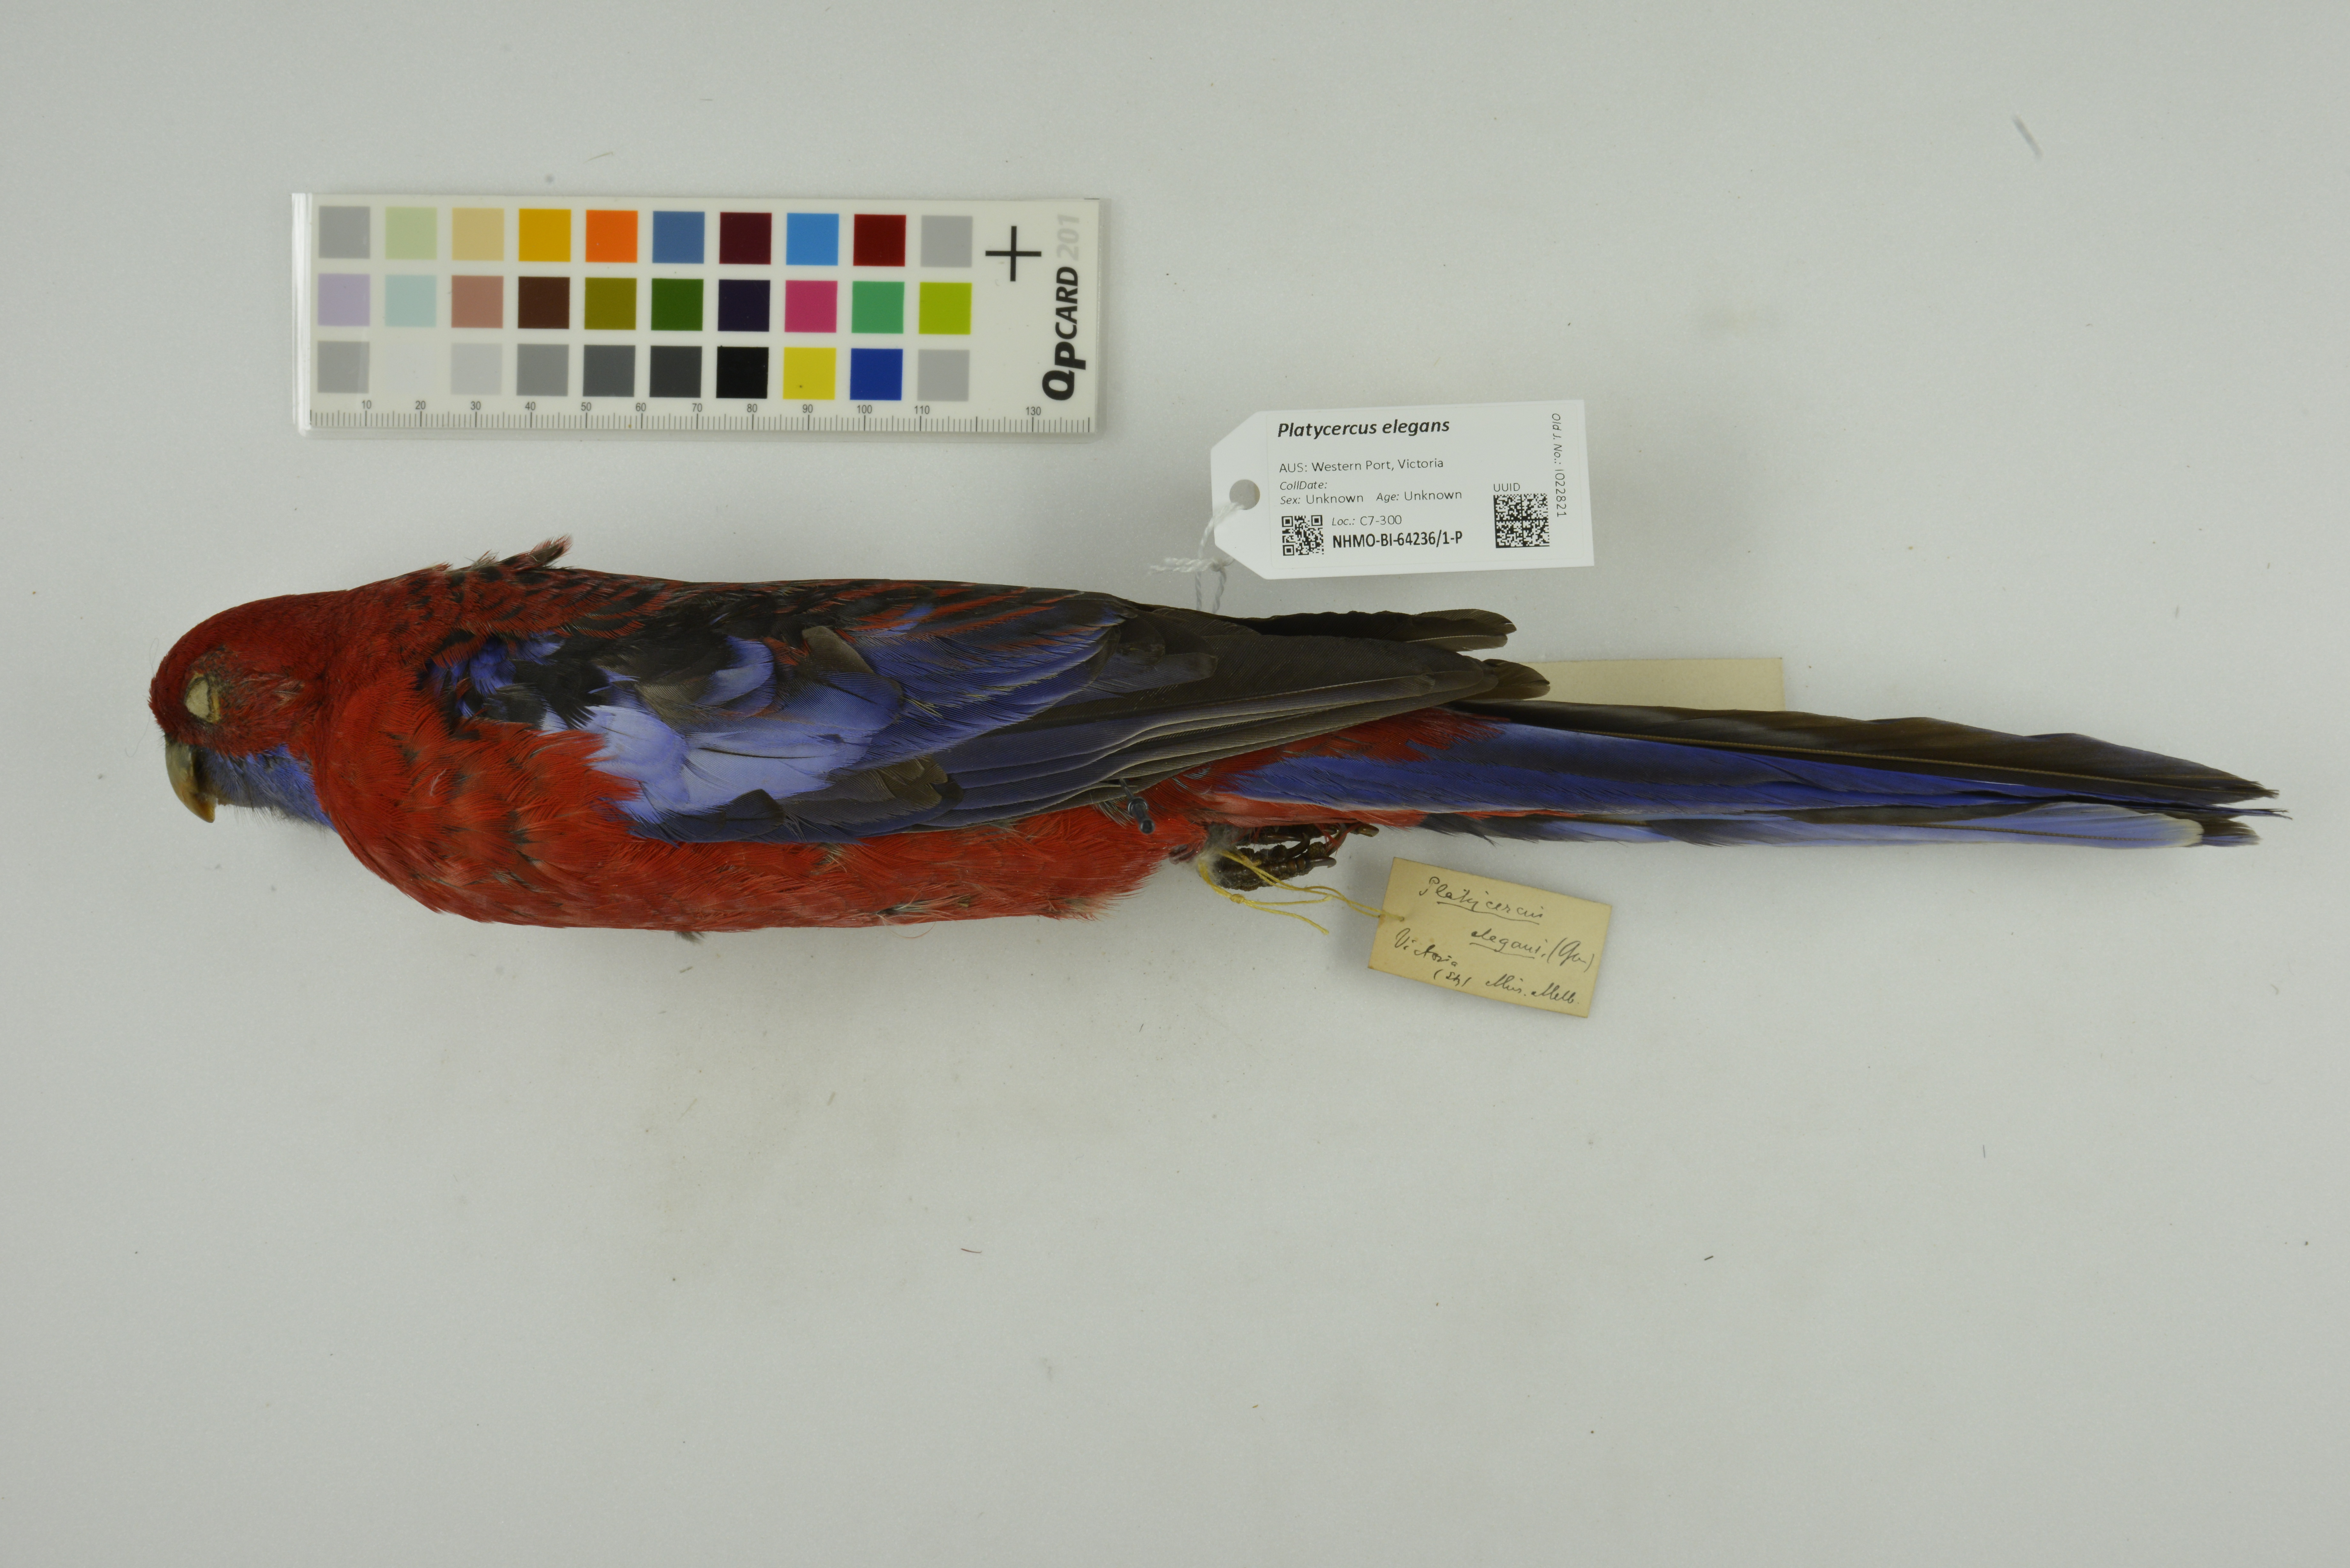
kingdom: Animalia
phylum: Chordata
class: Aves
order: Psittaciformes
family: Psittacidae
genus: Platycercus
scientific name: Platycercus elegans
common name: Crimson rosella
